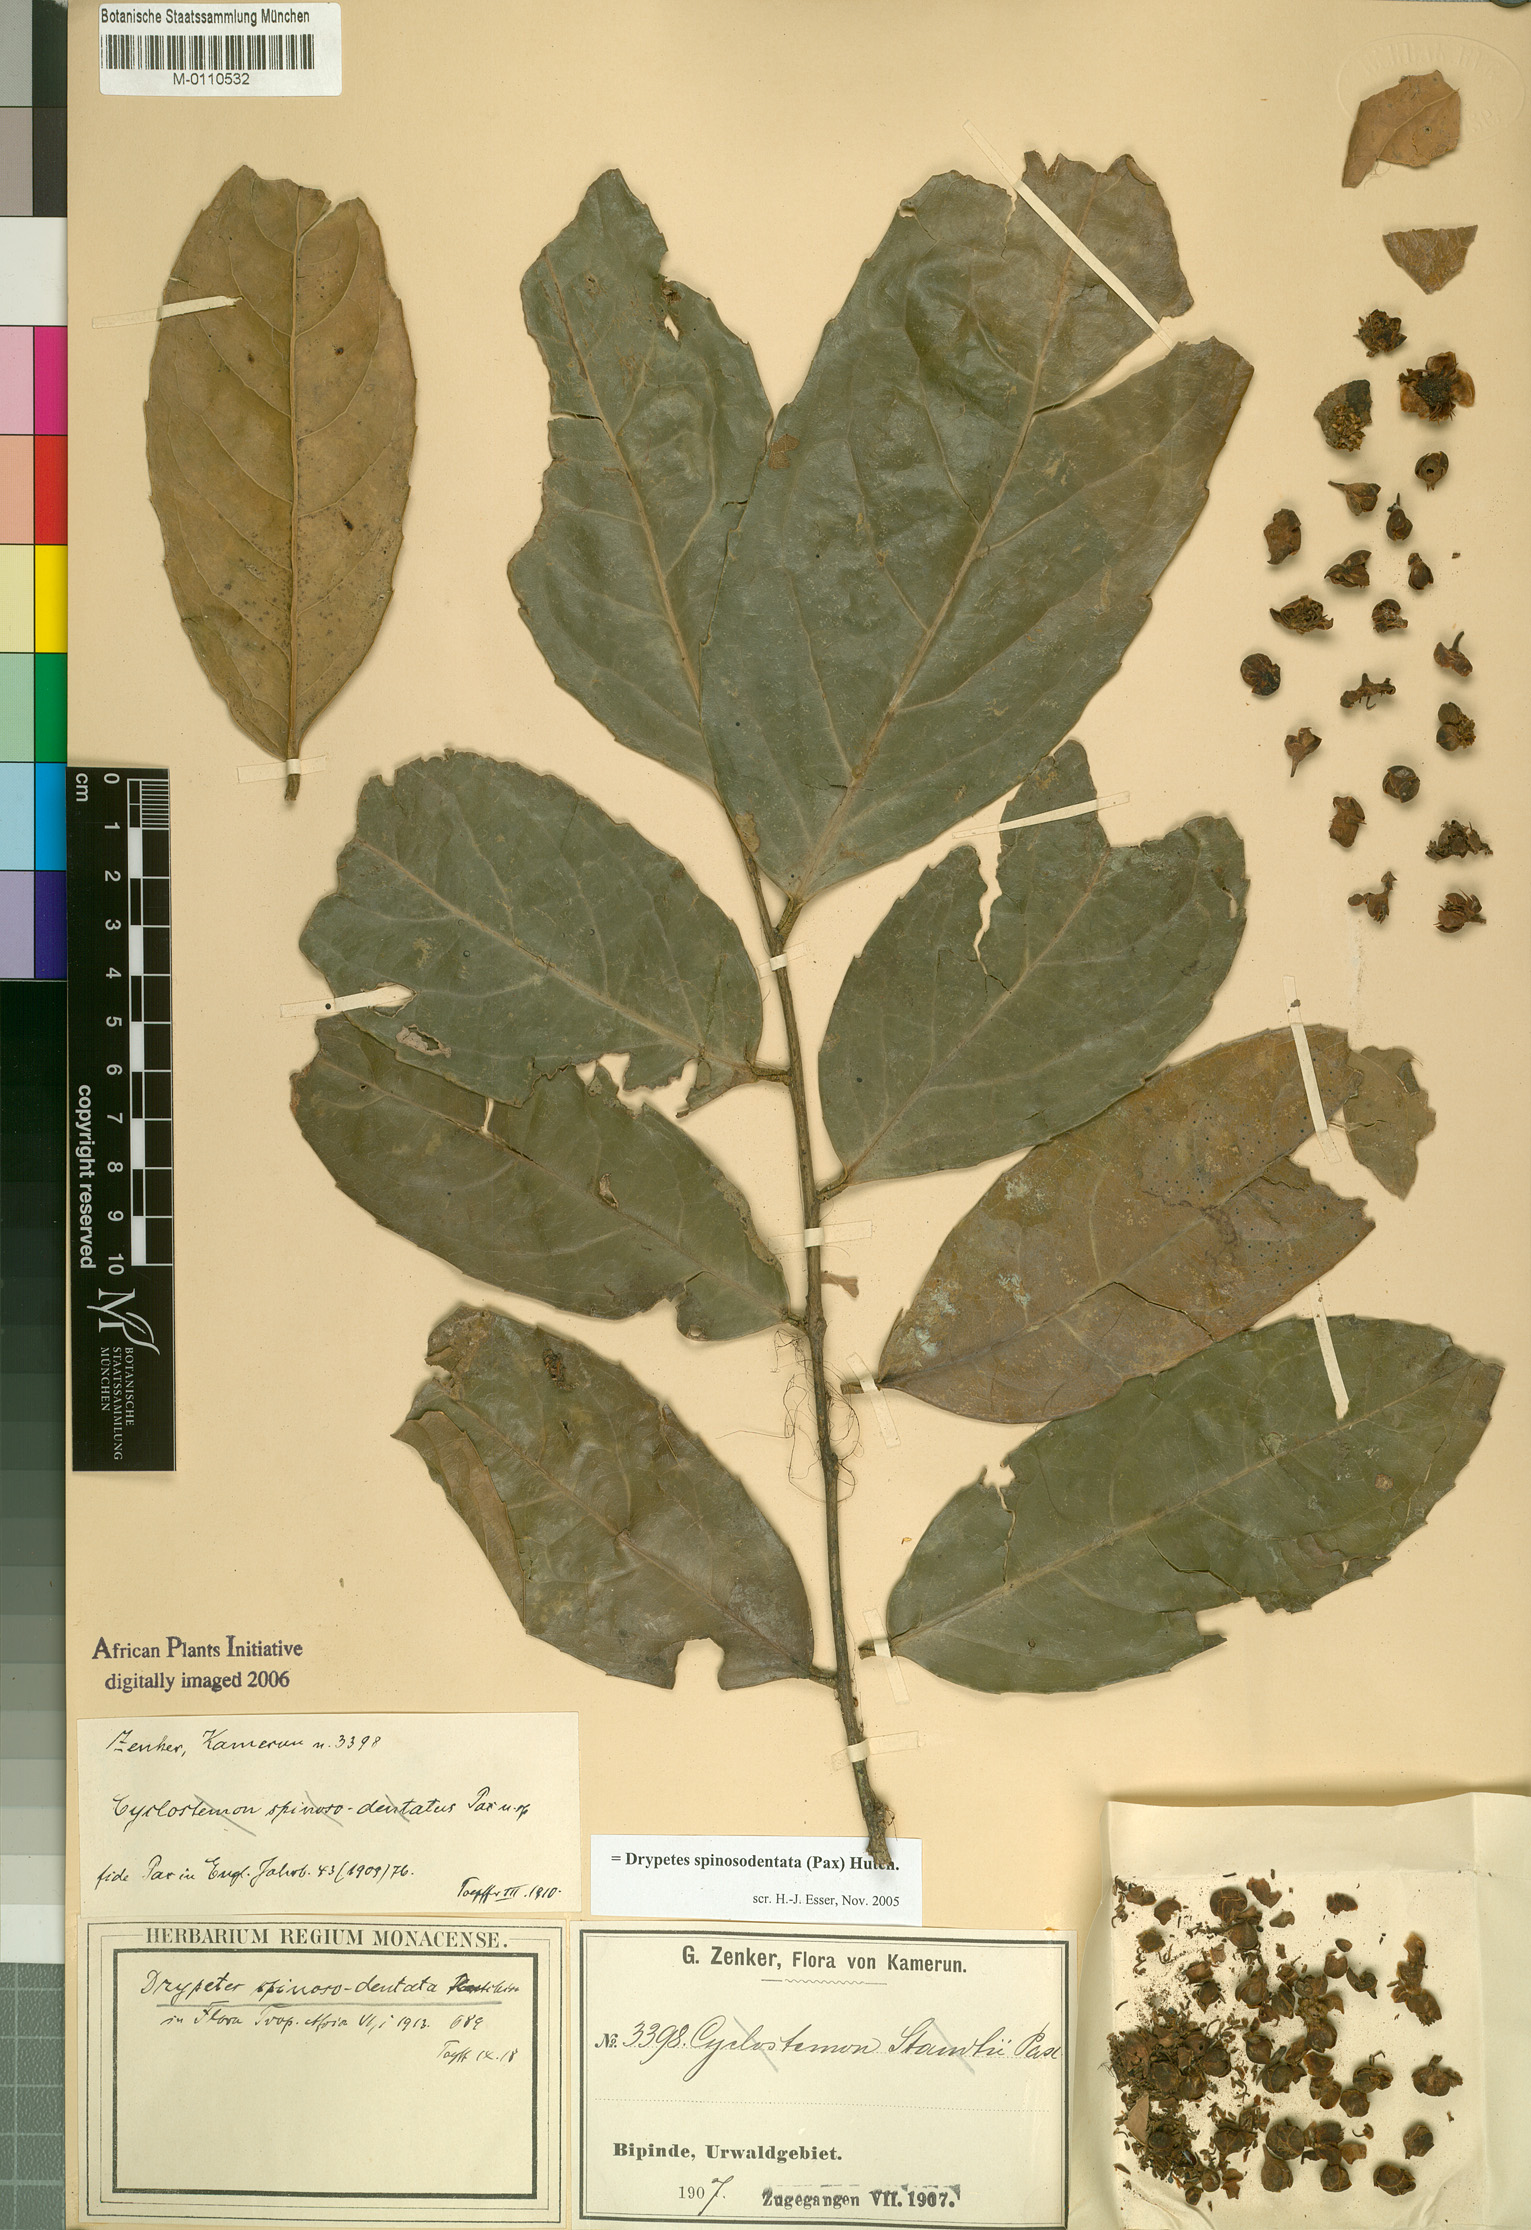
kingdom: Plantae
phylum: Tracheophyta
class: Magnoliopsida
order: Malpighiales
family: Putranjivaceae
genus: Drypetes
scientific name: Drypetes spinosodentata
